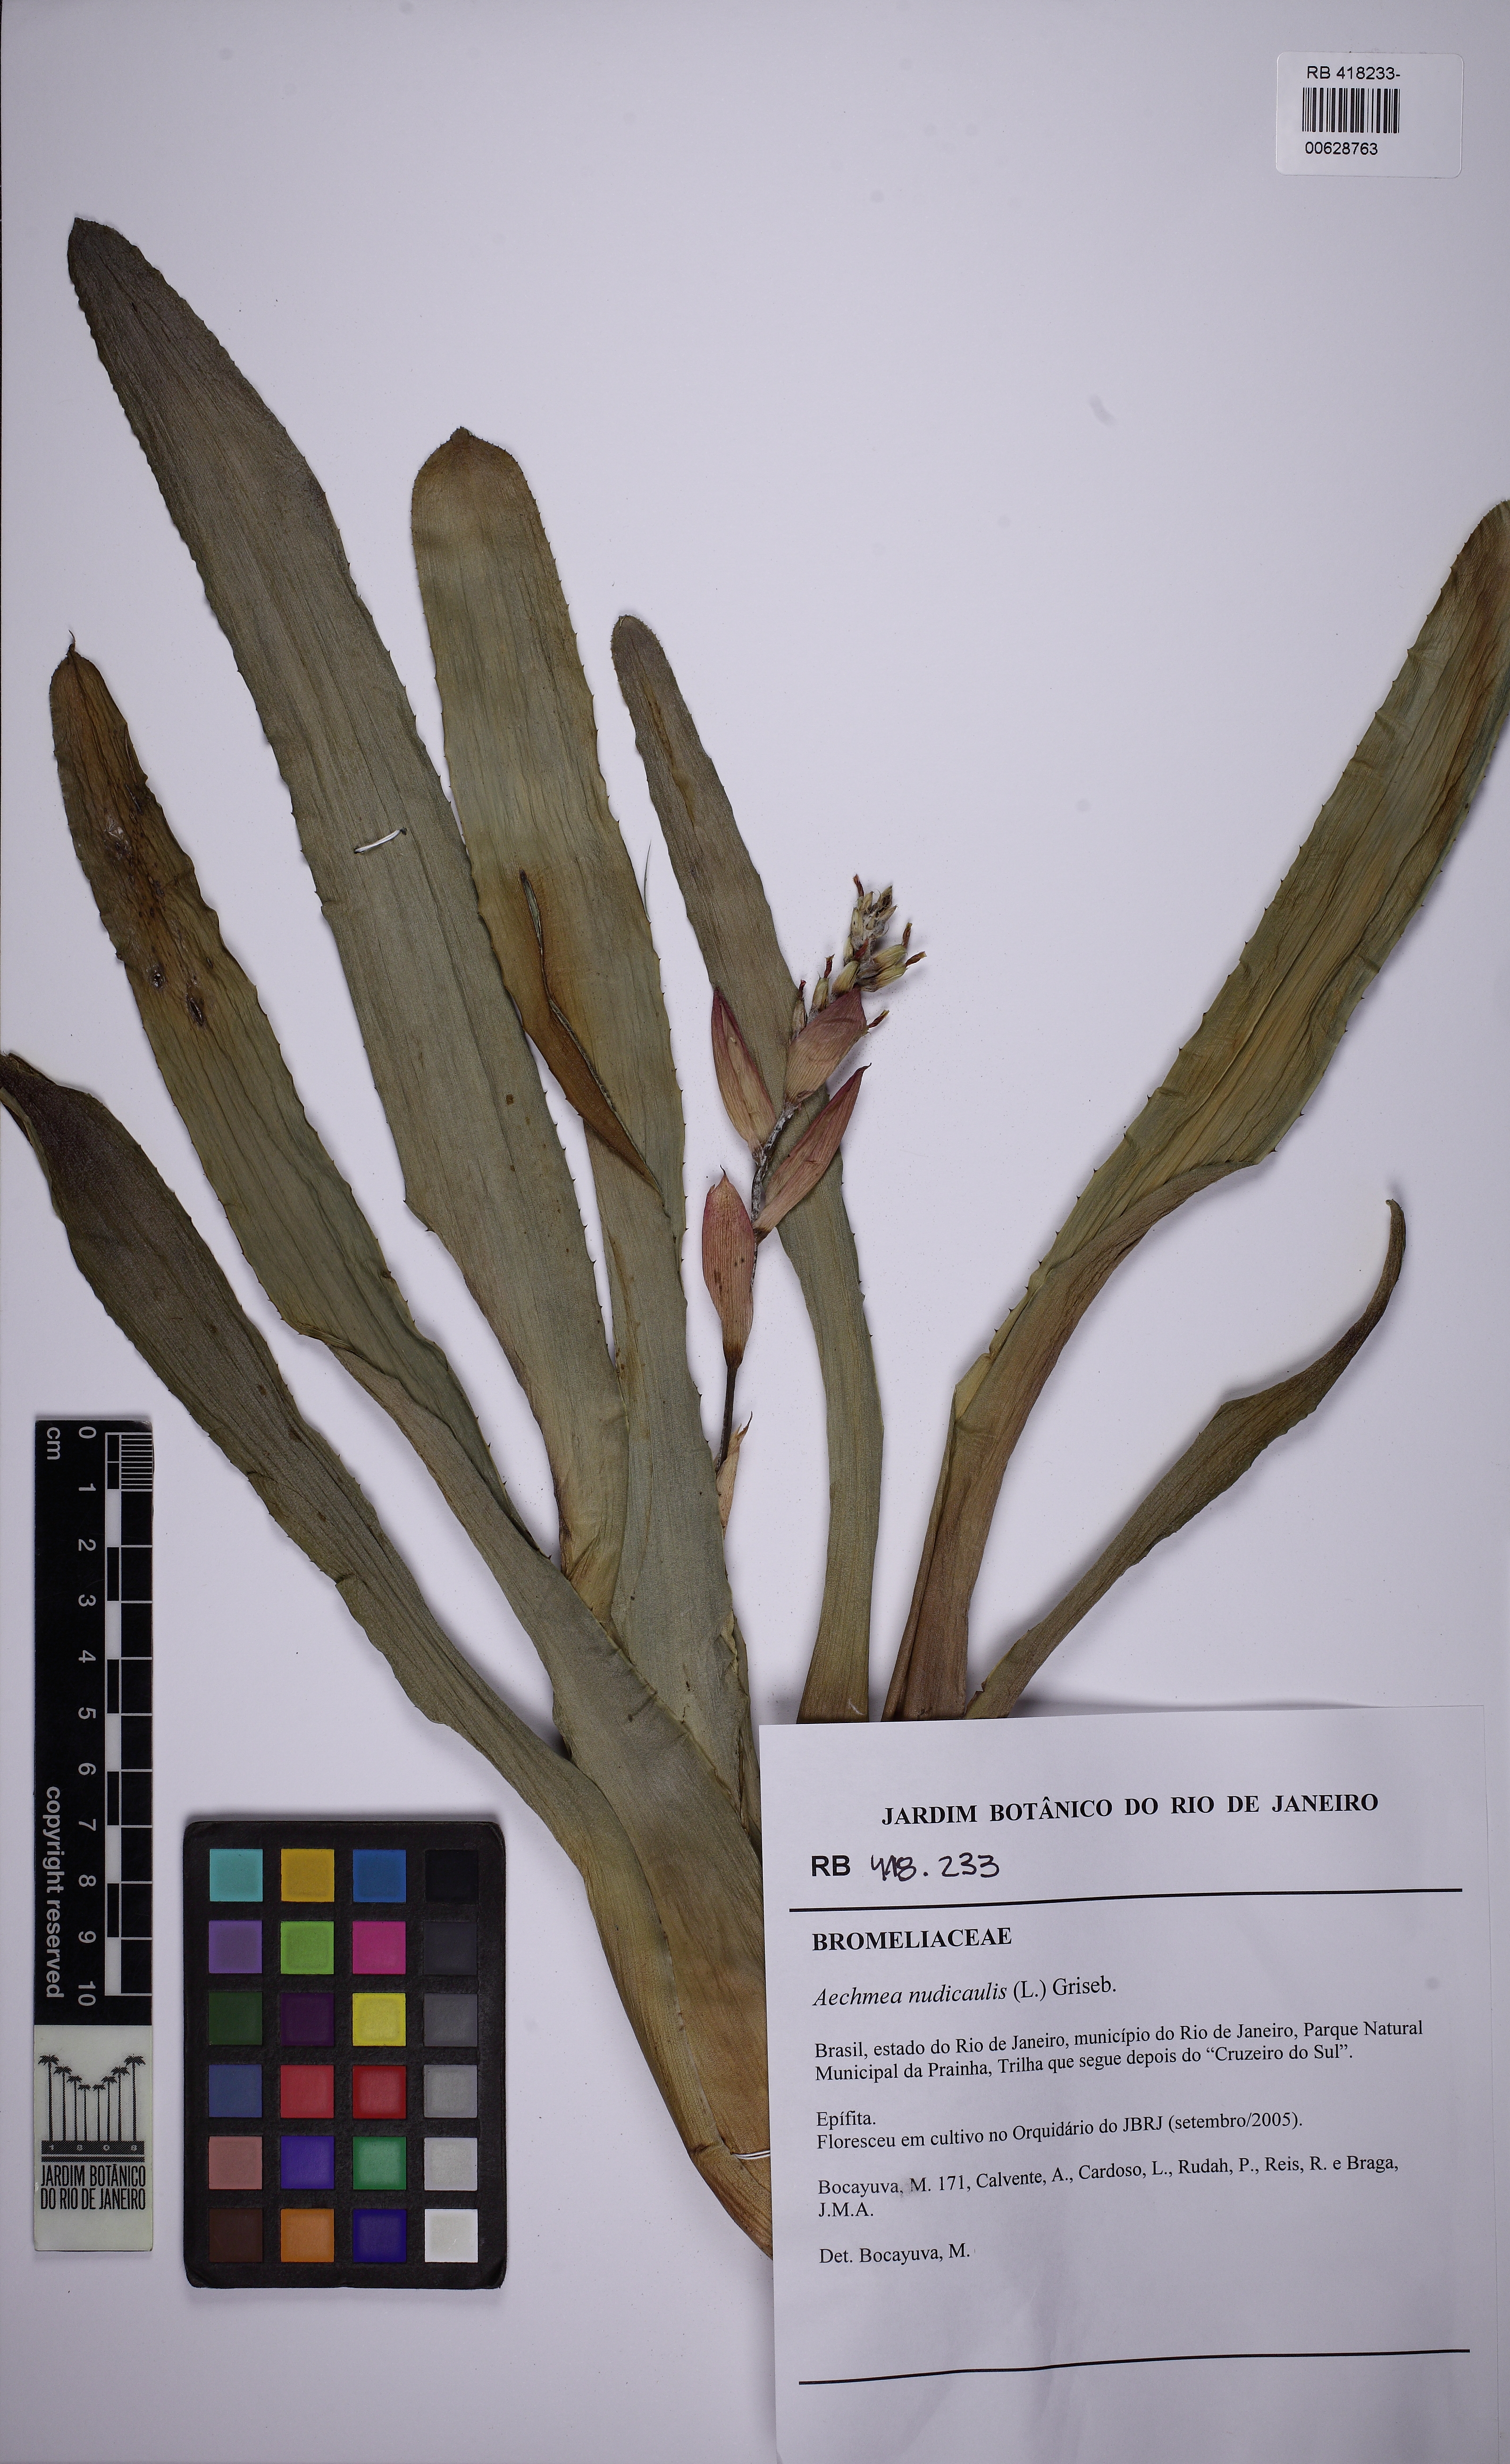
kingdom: Plantae
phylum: Tracheophyta
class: Liliopsida
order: Poales
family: Bromeliaceae
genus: Aechmea
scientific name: Aechmea nudicaulis
